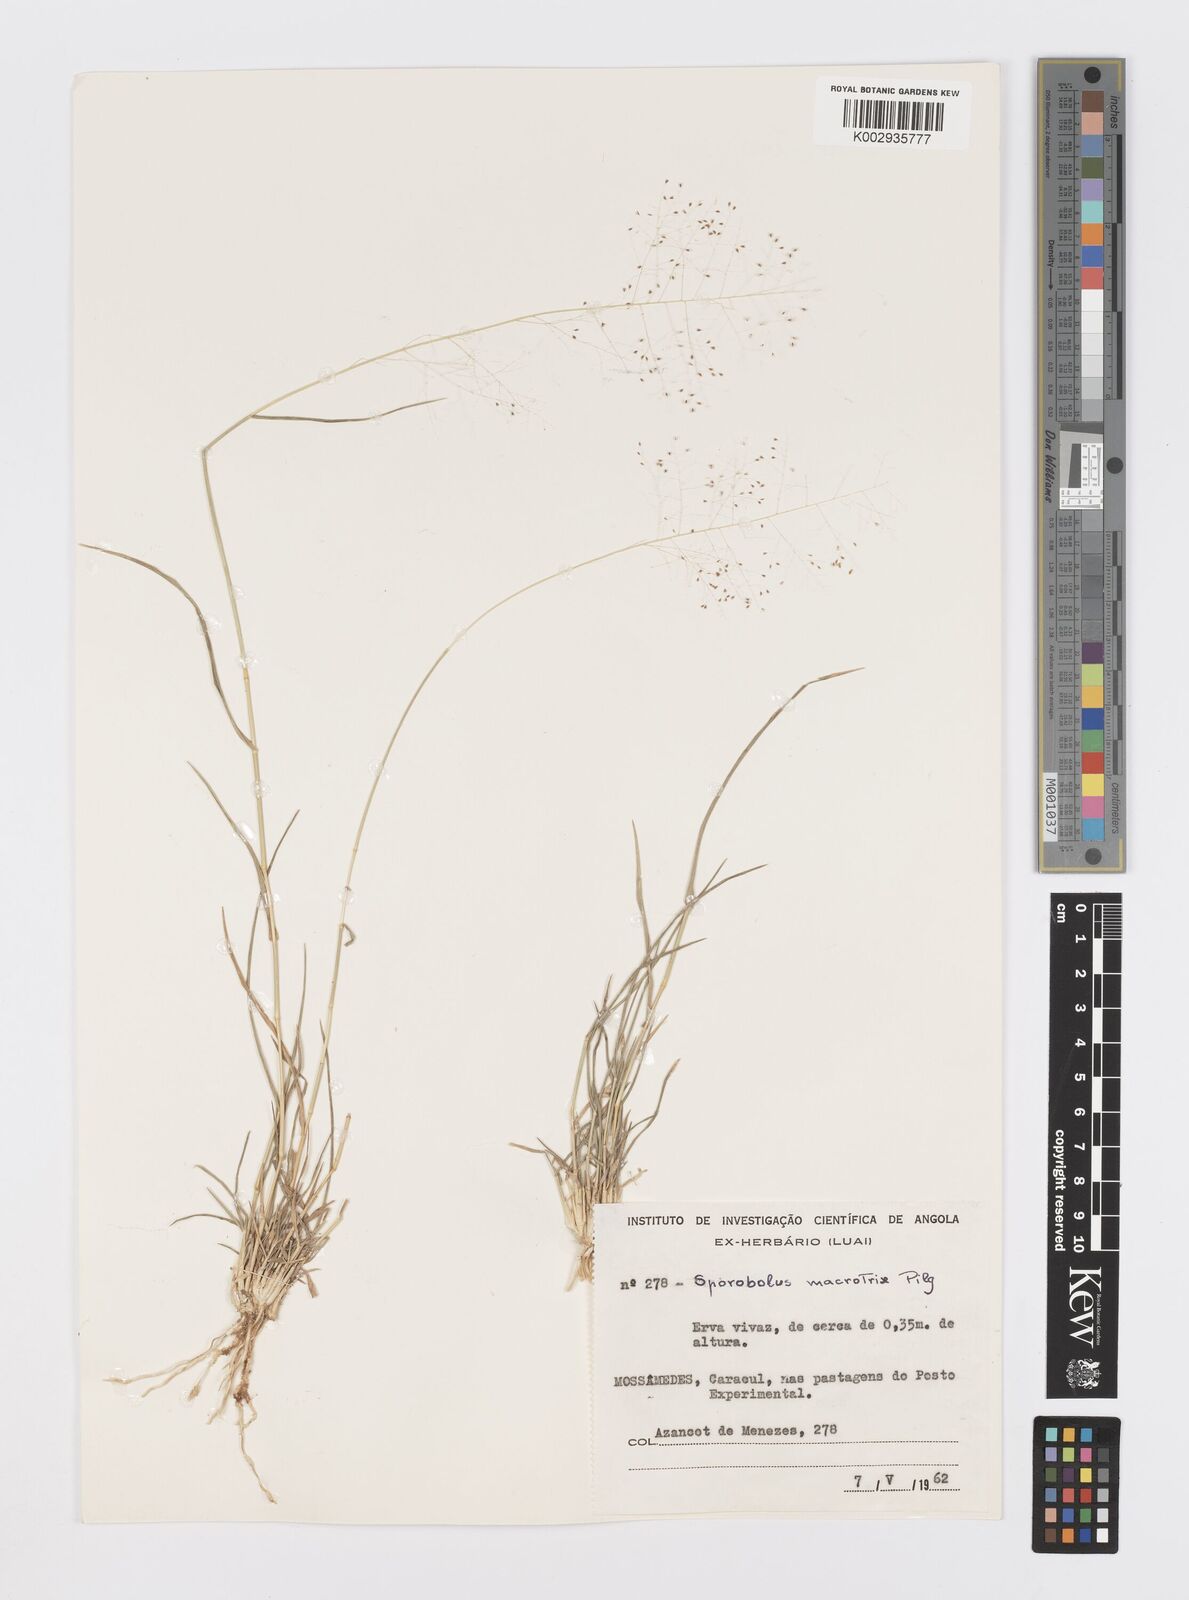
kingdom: Plantae
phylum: Tracheophyta
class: Liliopsida
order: Poales
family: Poaceae
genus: Sporobolus
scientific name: Sporobolus welwitschii
